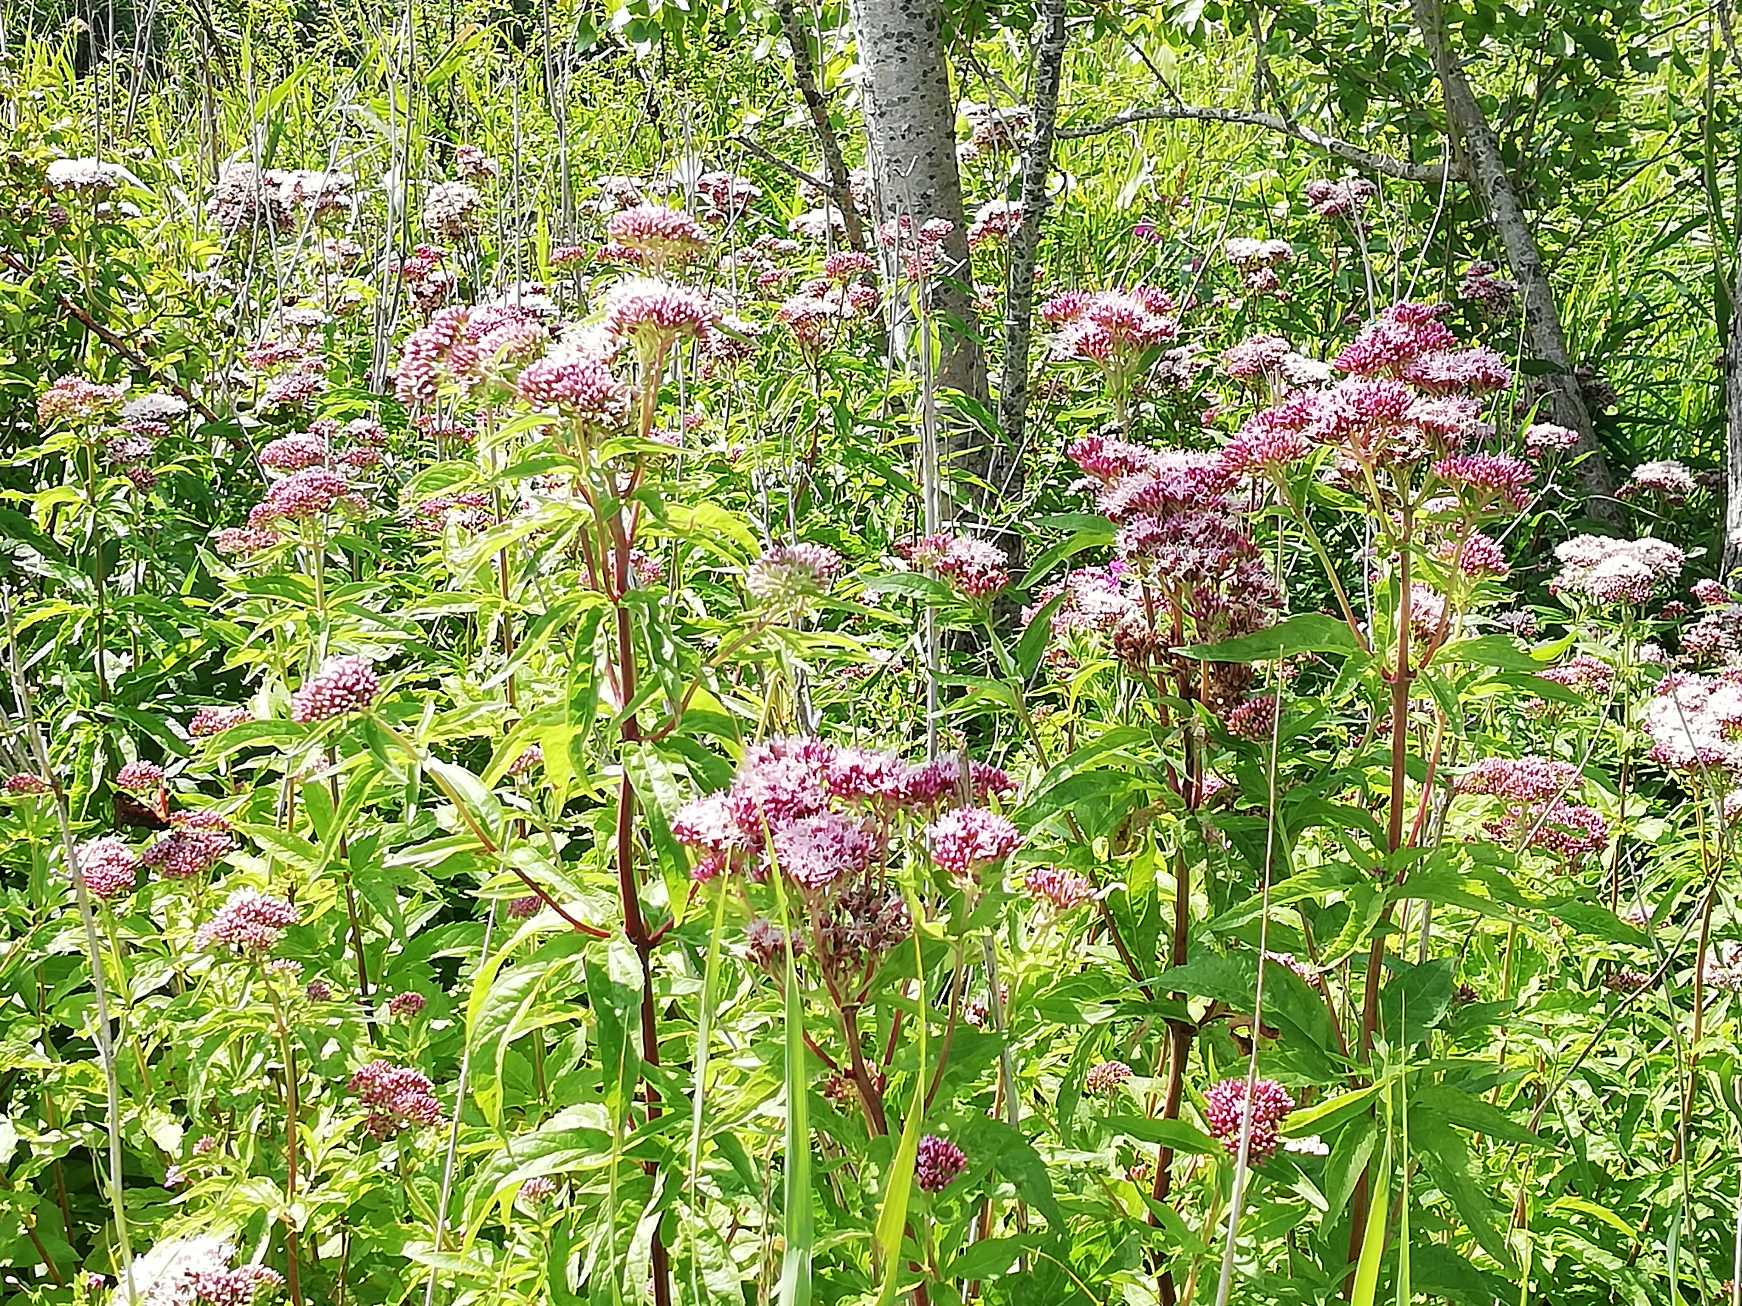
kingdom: Plantae
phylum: Tracheophyta
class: Magnoliopsida
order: Asterales
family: Asteraceae
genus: Eupatorium
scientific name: Eupatorium cannabinum
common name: Hjortetrøst
